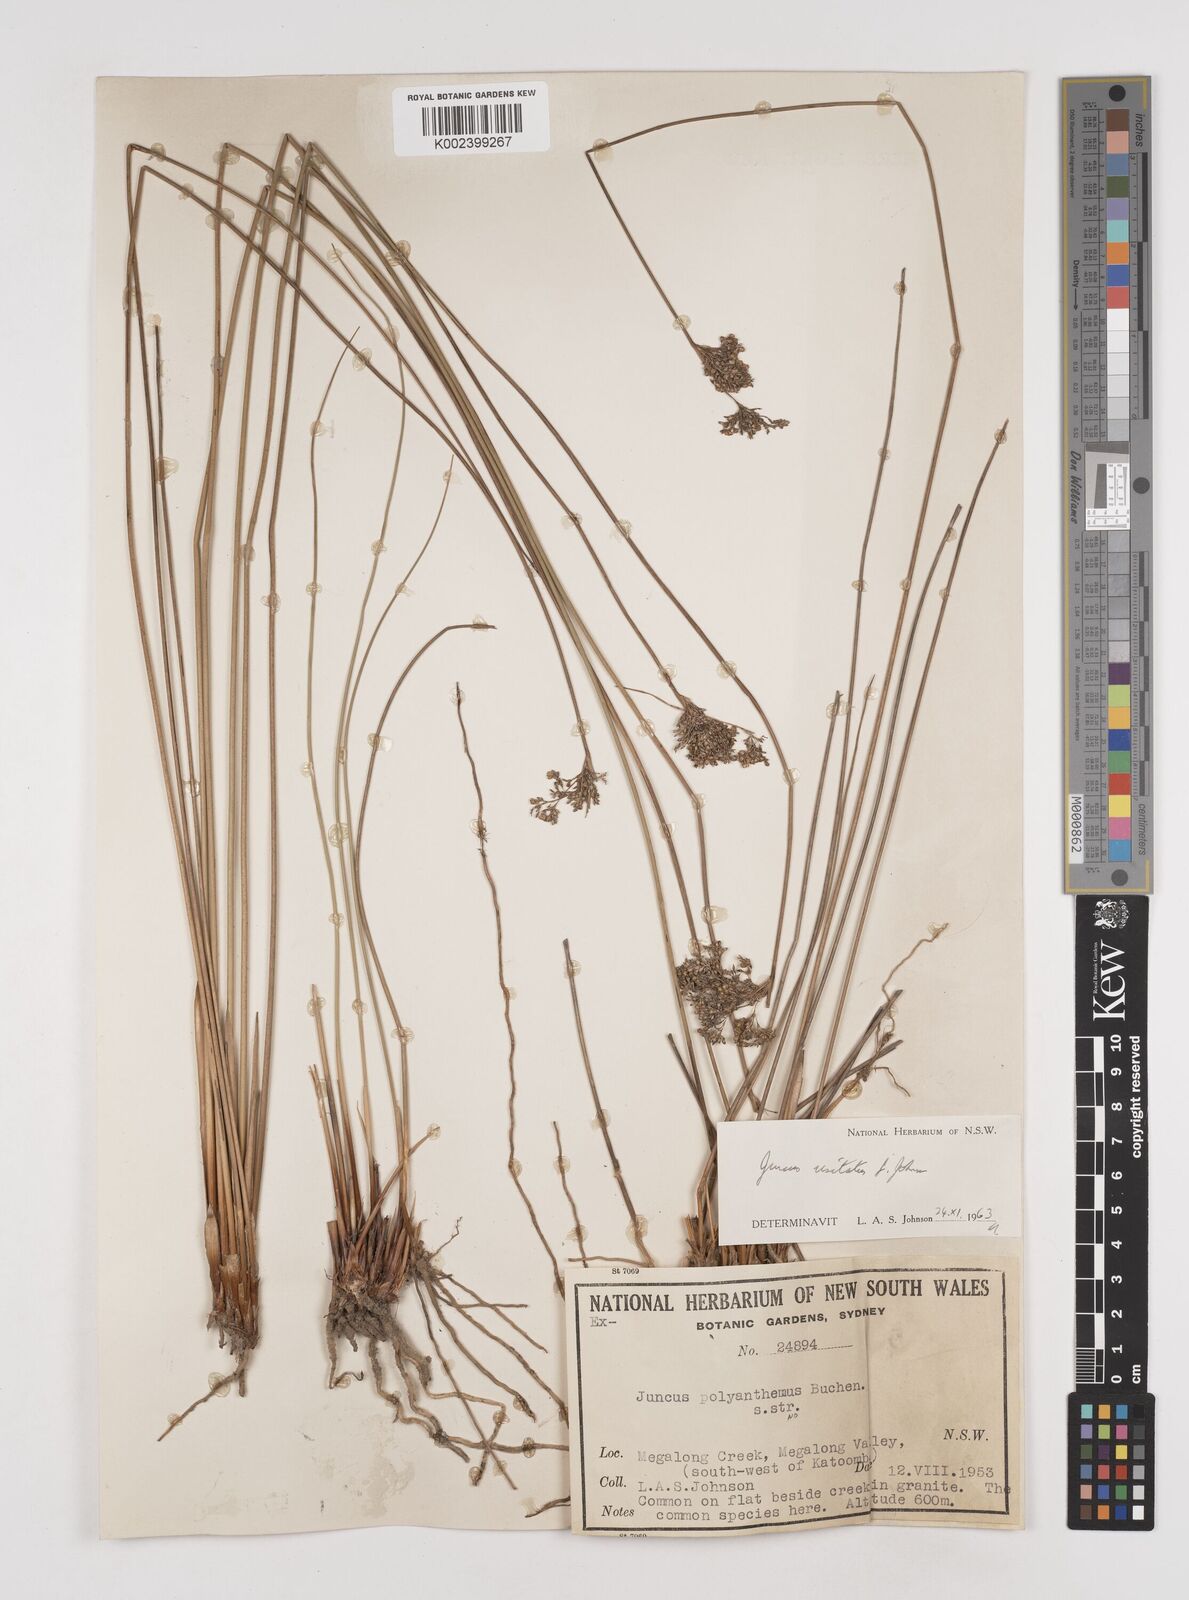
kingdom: Plantae
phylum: Tracheophyta
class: Liliopsida
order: Poales
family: Juncaceae
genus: Juncus
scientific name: Juncus usitatus
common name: Rush
